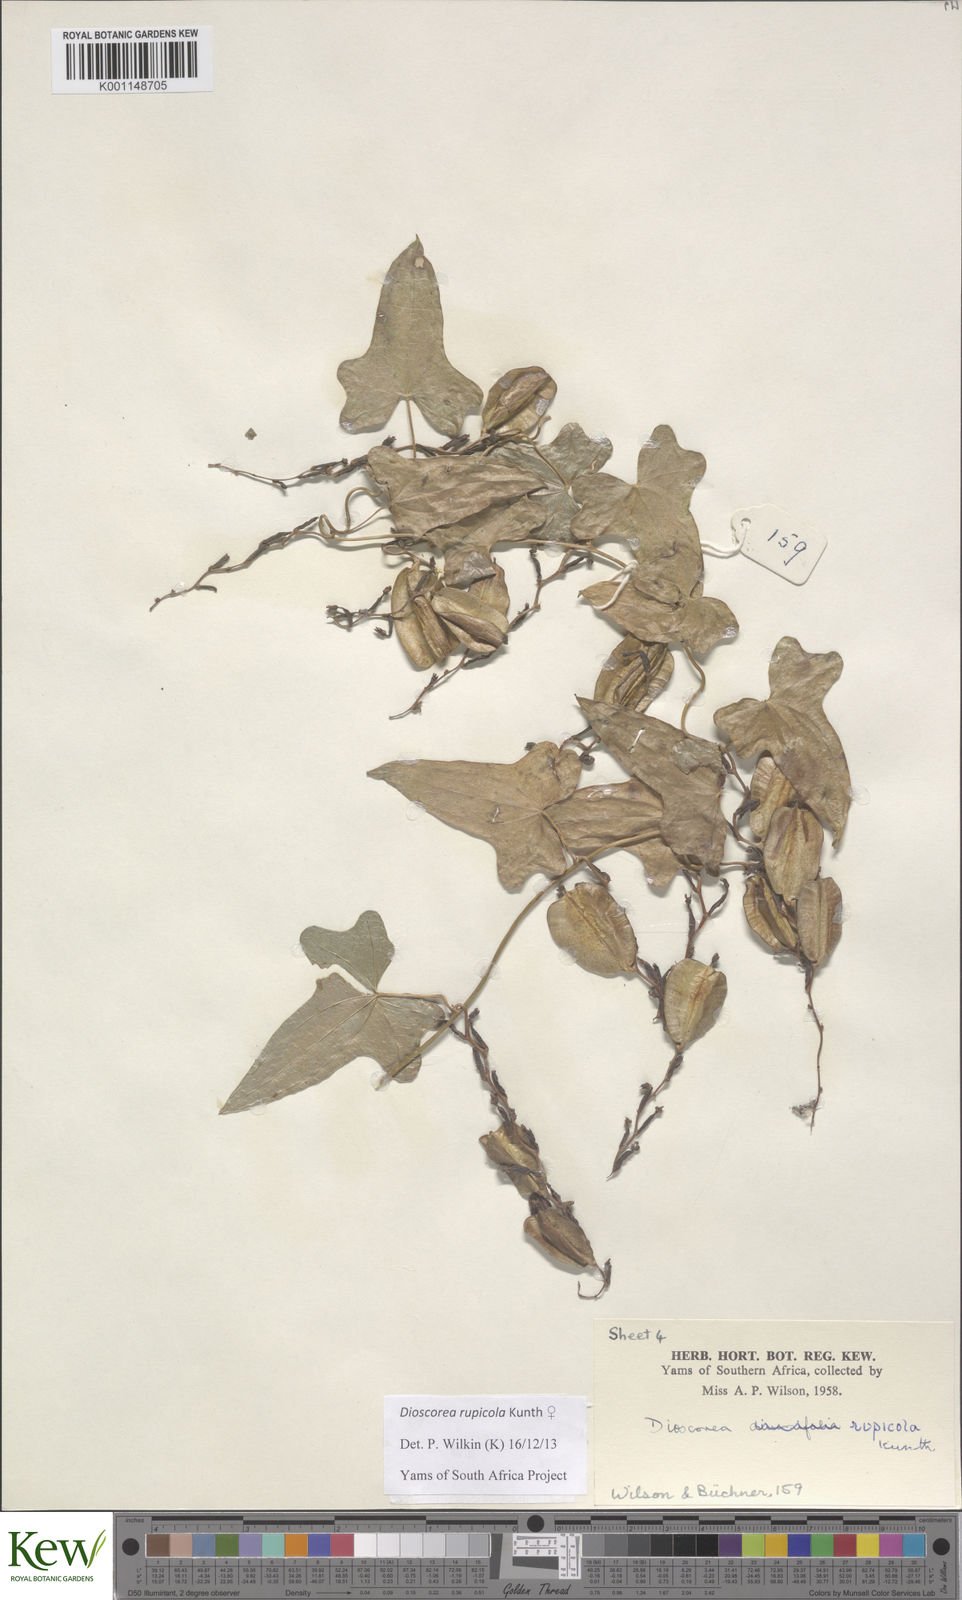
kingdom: Plantae
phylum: Tracheophyta
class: Liliopsida
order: Dioscoreales
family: Dioscoreaceae
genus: Dioscorea
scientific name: Dioscorea rupicola
